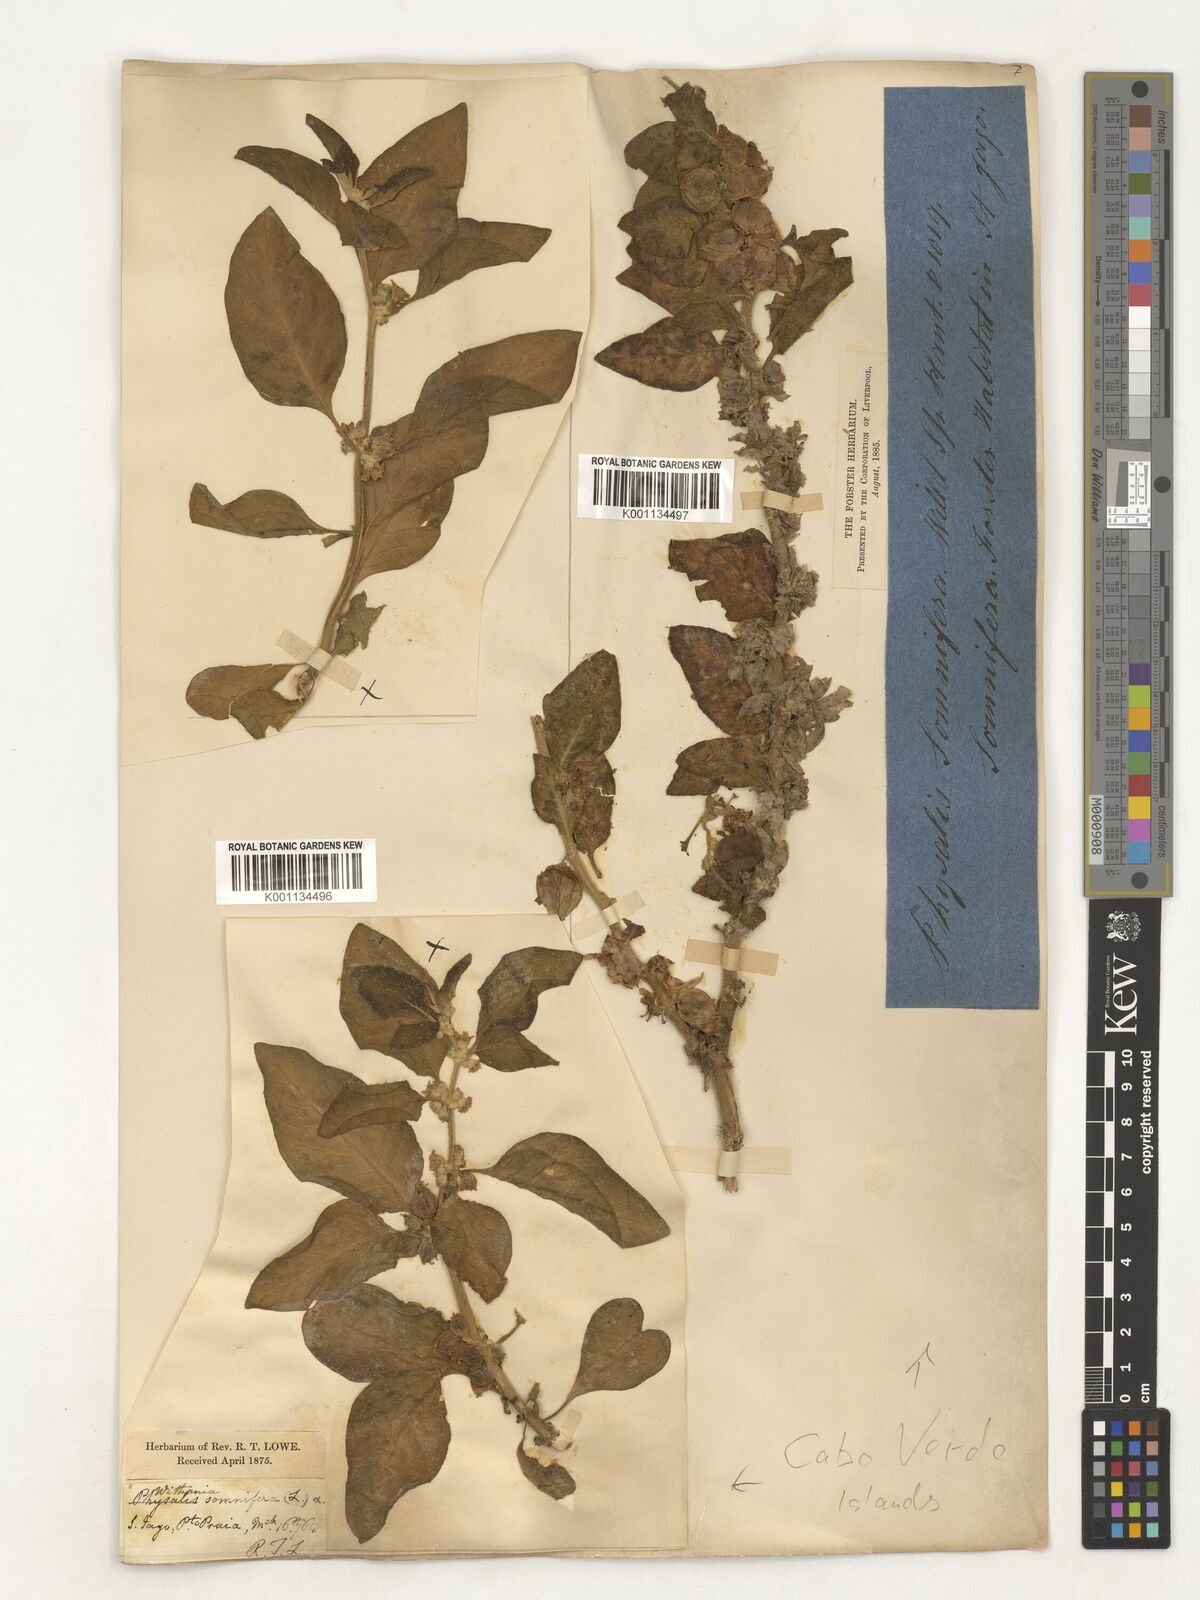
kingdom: Plantae
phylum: Tracheophyta
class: Magnoliopsida
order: Solanales
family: Solanaceae
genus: Withania
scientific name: Withania somnifera
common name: Winter-cherry
